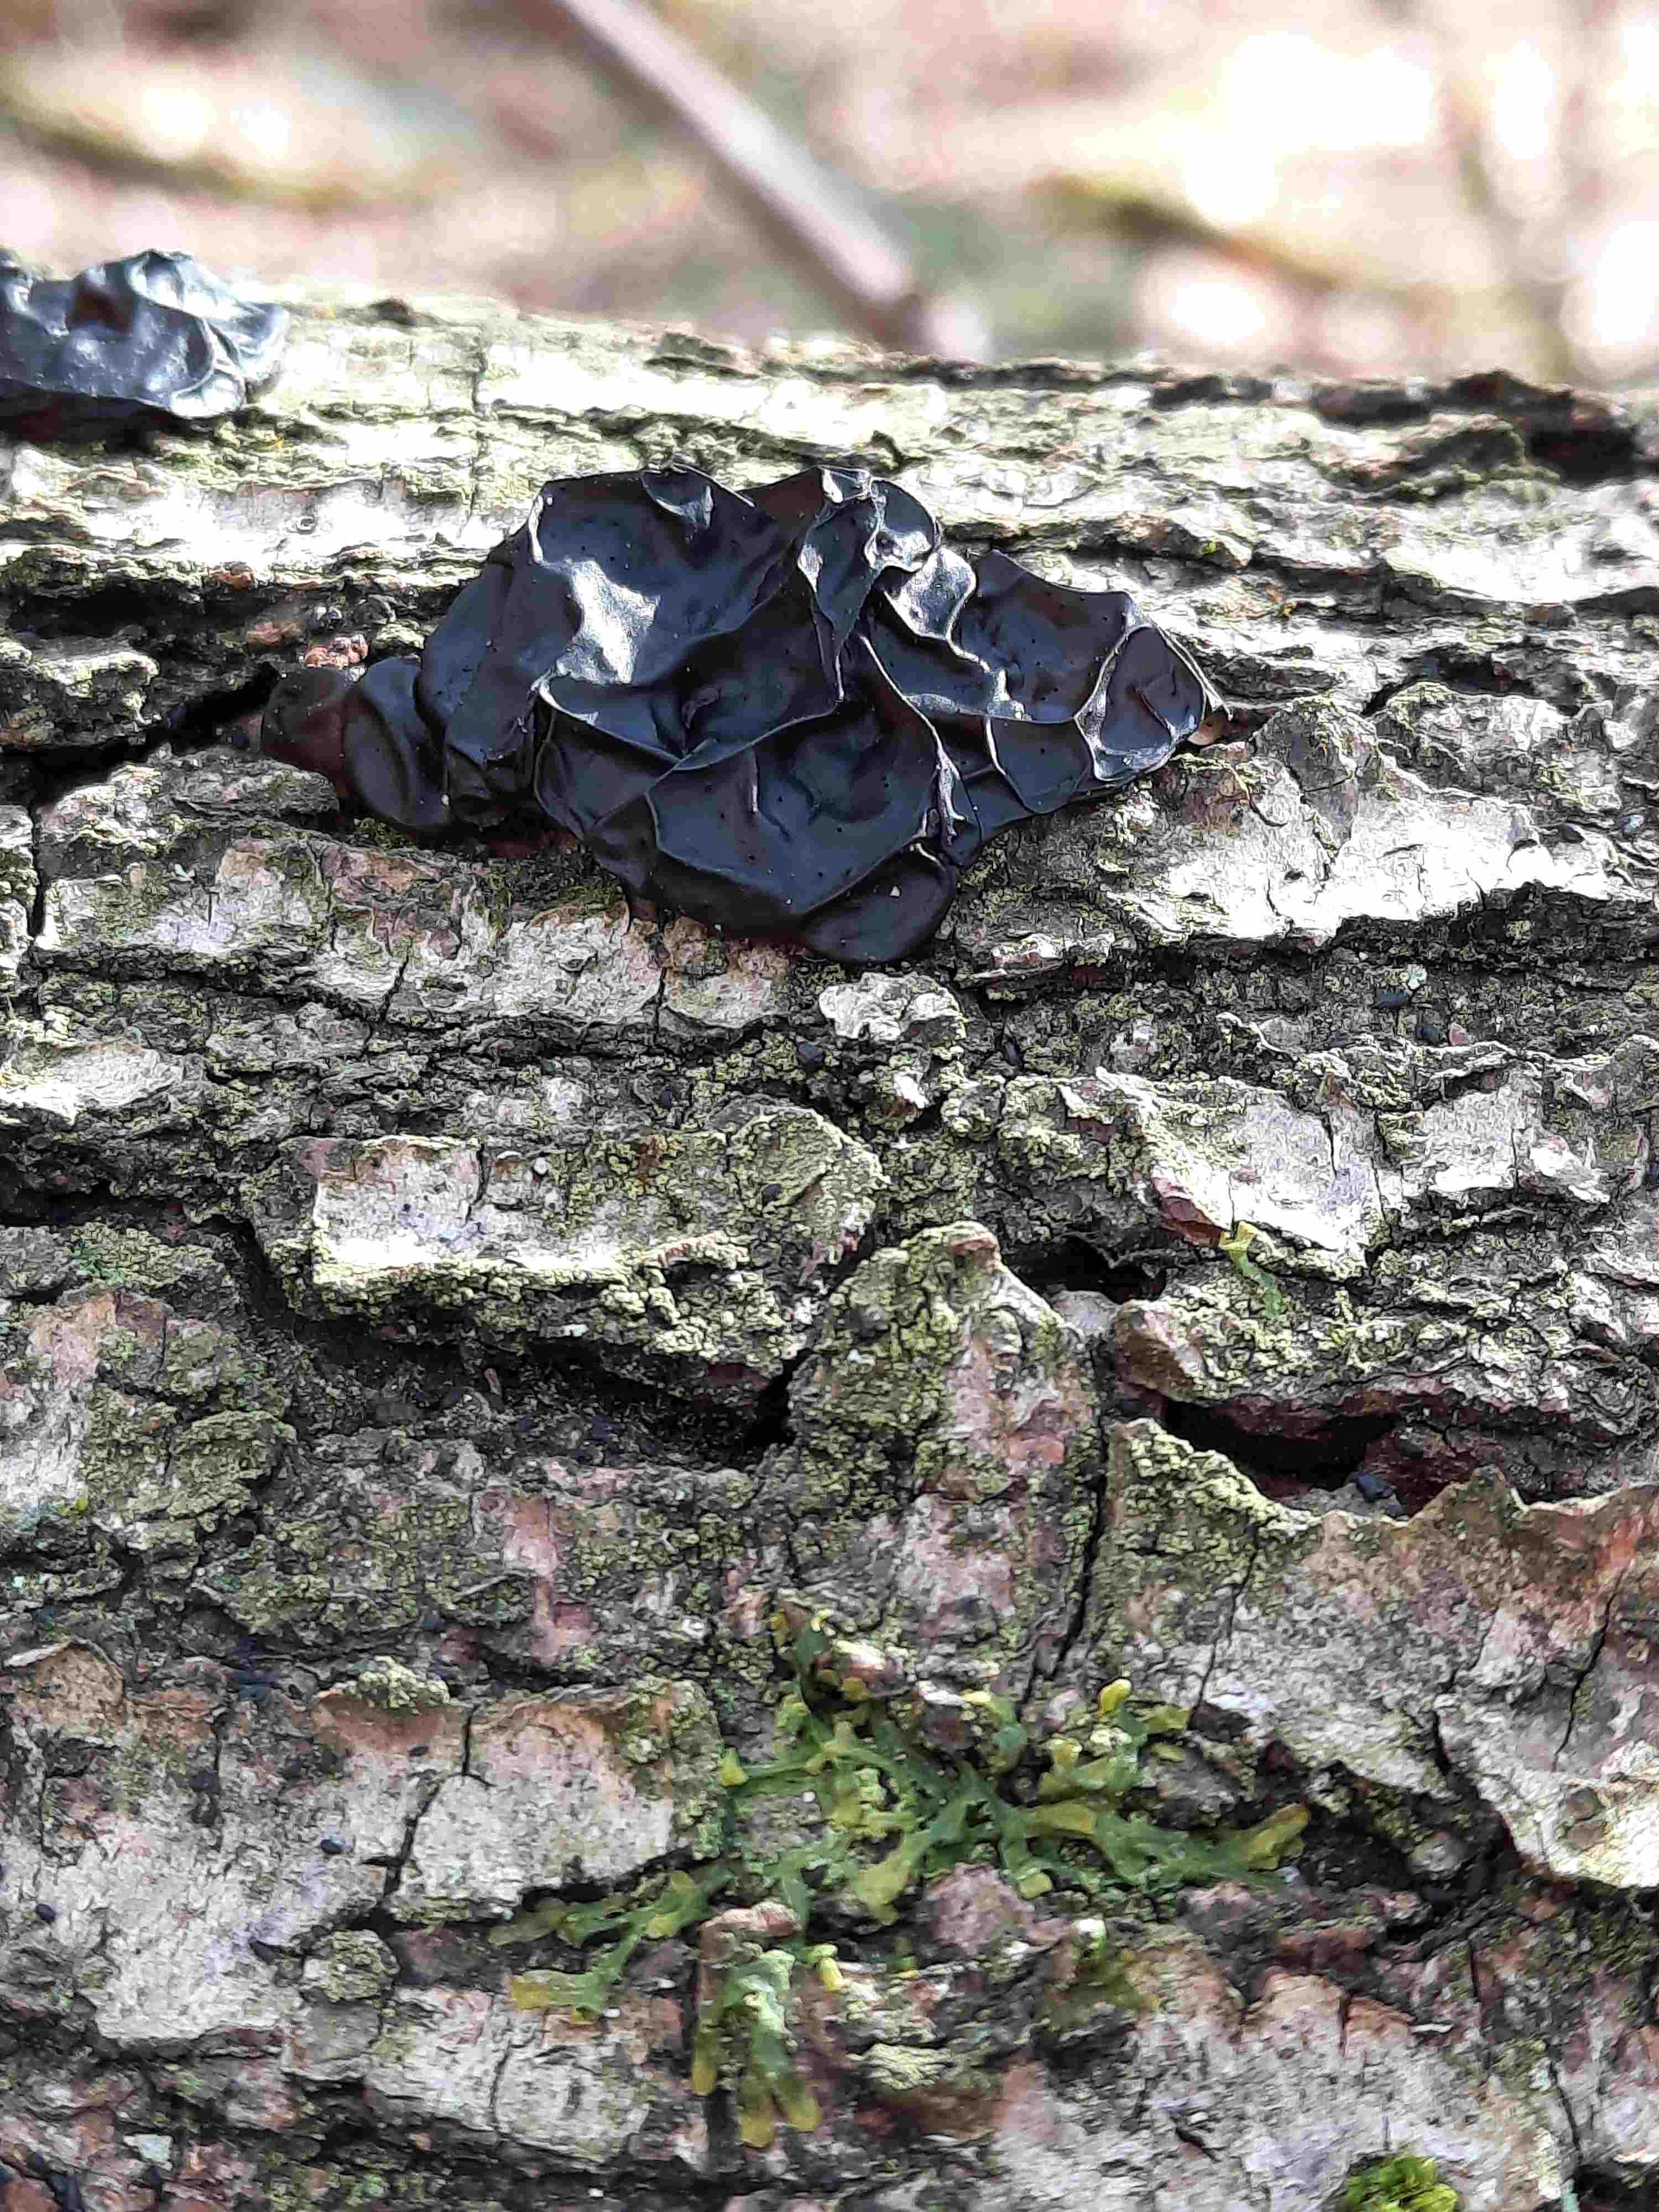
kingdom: Fungi
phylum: Basidiomycota
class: Agaricomycetes
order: Auriculariales
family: Auriculariaceae
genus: Exidia
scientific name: Exidia nigricans
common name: almindelig bævretop
